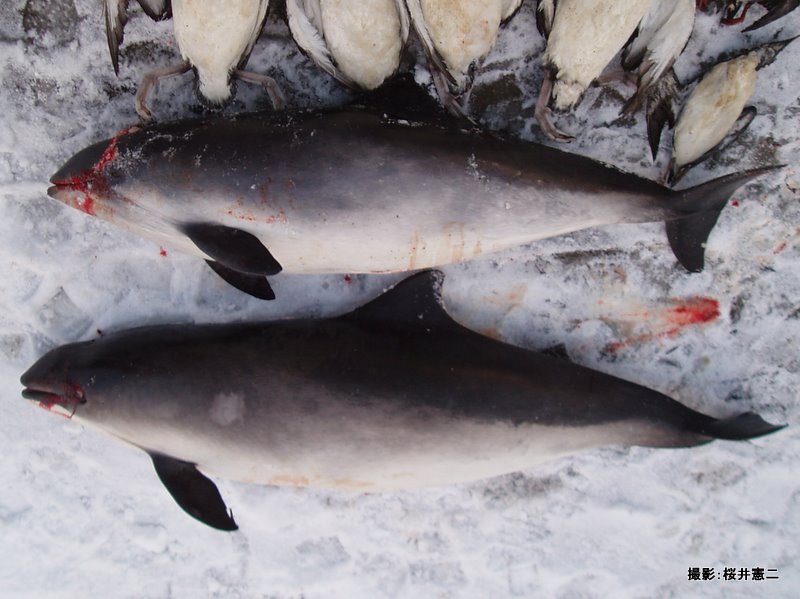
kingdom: Animalia
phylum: Chordata
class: Mammalia
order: Cetacea
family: Phocoenidae
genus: Phocoena
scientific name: Phocoena phocoena
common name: Harbour porpoise
